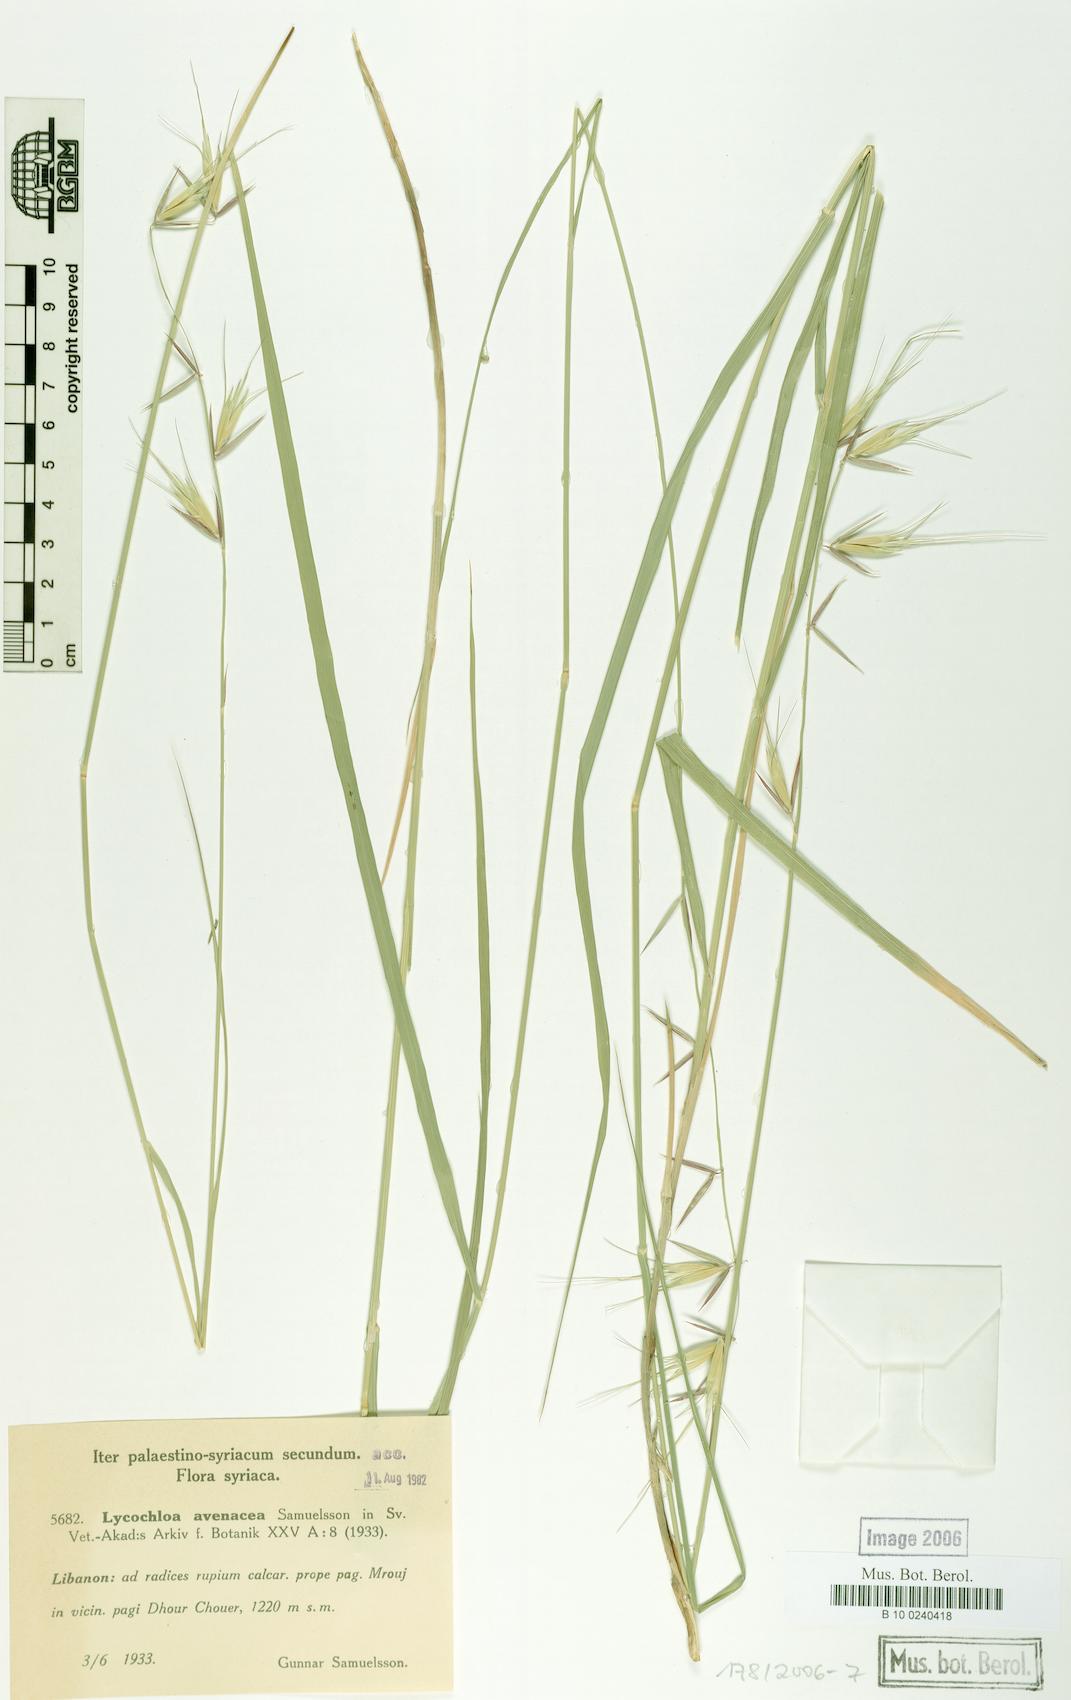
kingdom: Plantae
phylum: Tracheophyta
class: Liliopsida
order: Poales
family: Poaceae
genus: Lycochloa
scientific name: Lycochloa avenacea
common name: Oat-like lycochloa
